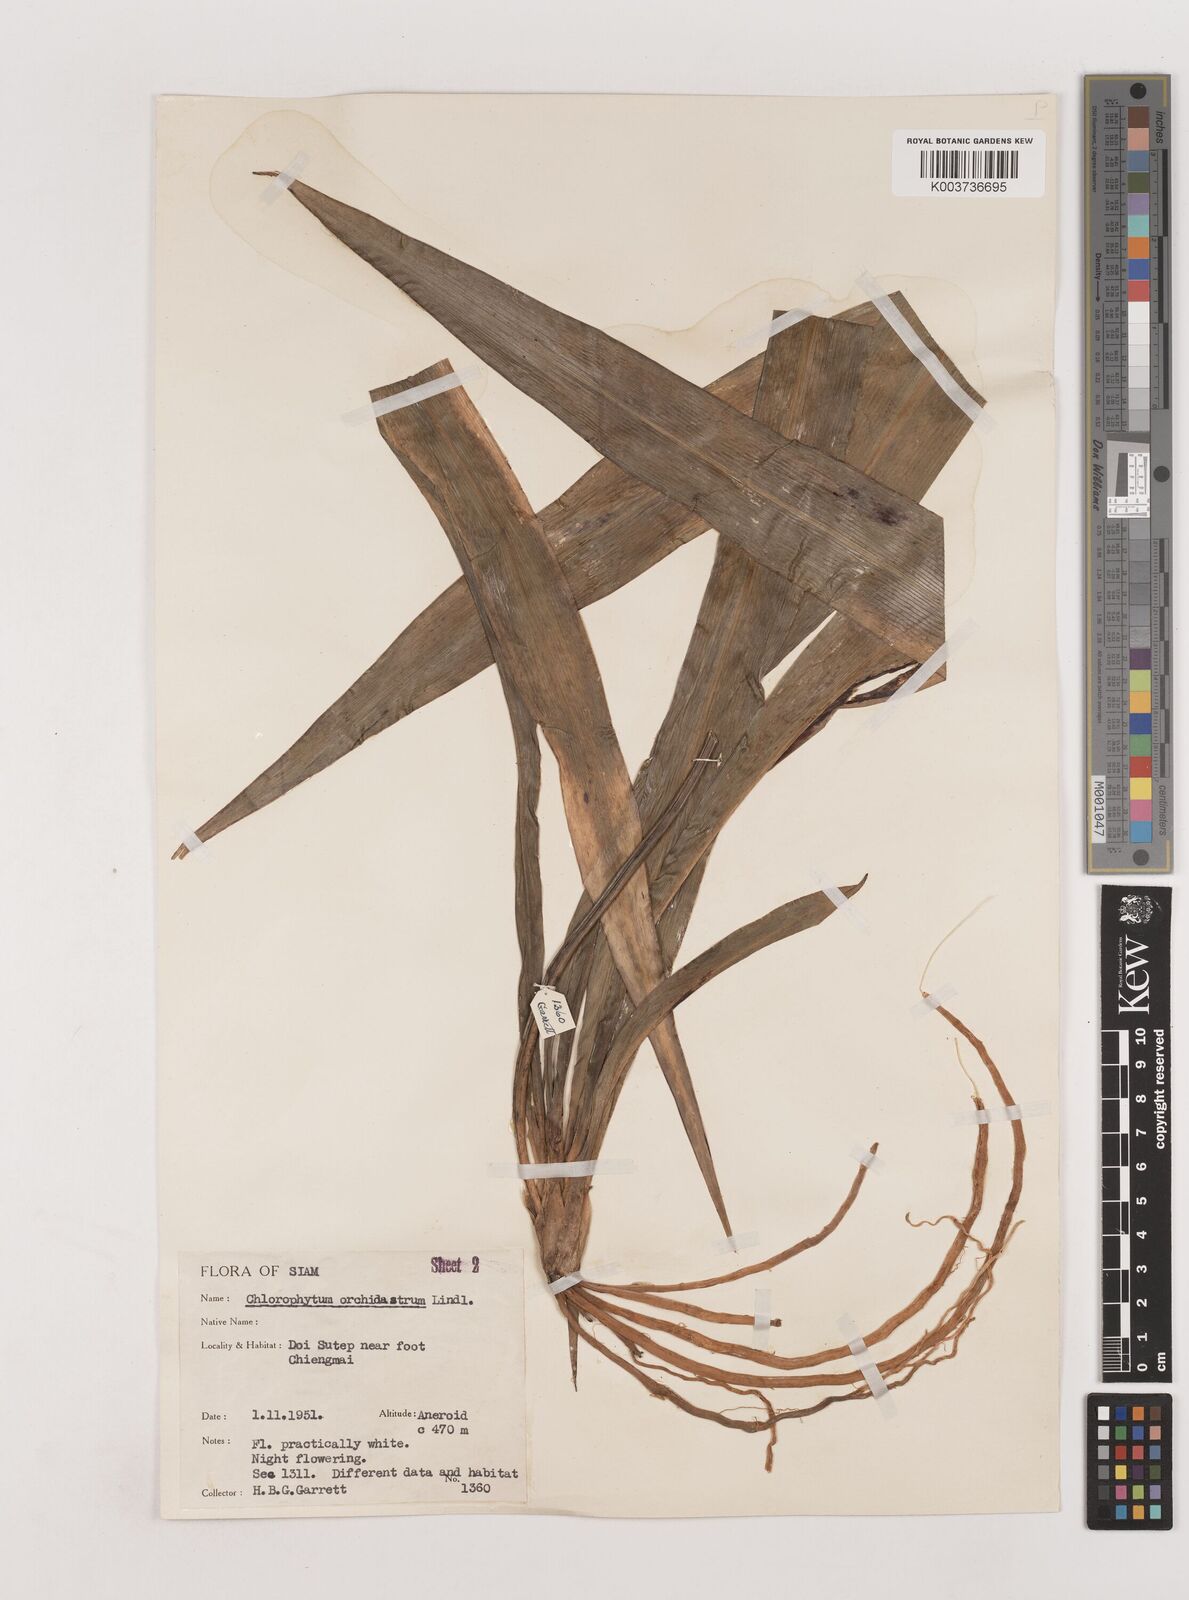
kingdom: Plantae
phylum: Tracheophyta
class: Liliopsida
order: Asparagales
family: Asparagaceae
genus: Chlorophytum
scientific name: Chlorophytum
